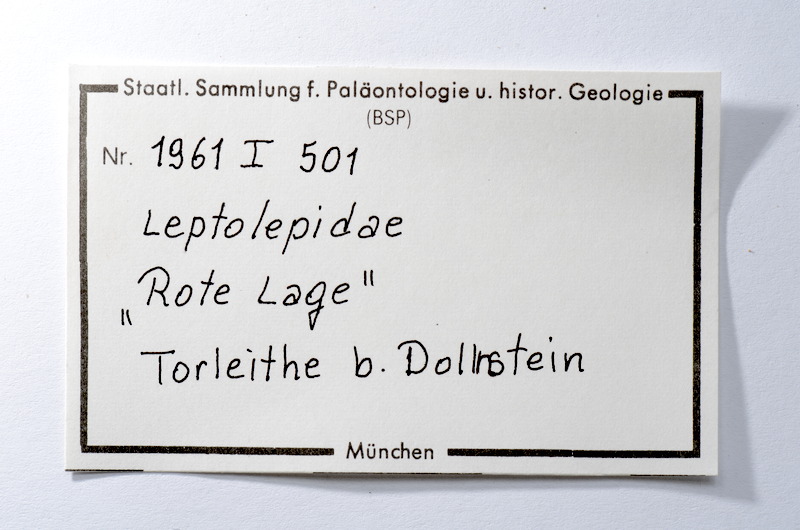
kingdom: Animalia
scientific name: Animalia
